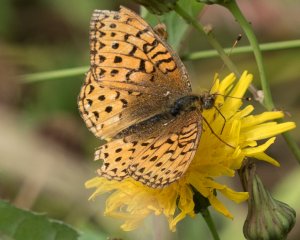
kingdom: Animalia
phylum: Arthropoda
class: Insecta
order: Lepidoptera
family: Nymphalidae
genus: Speyeria
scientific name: Speyeria atlantis
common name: Northwestern Fritillary
